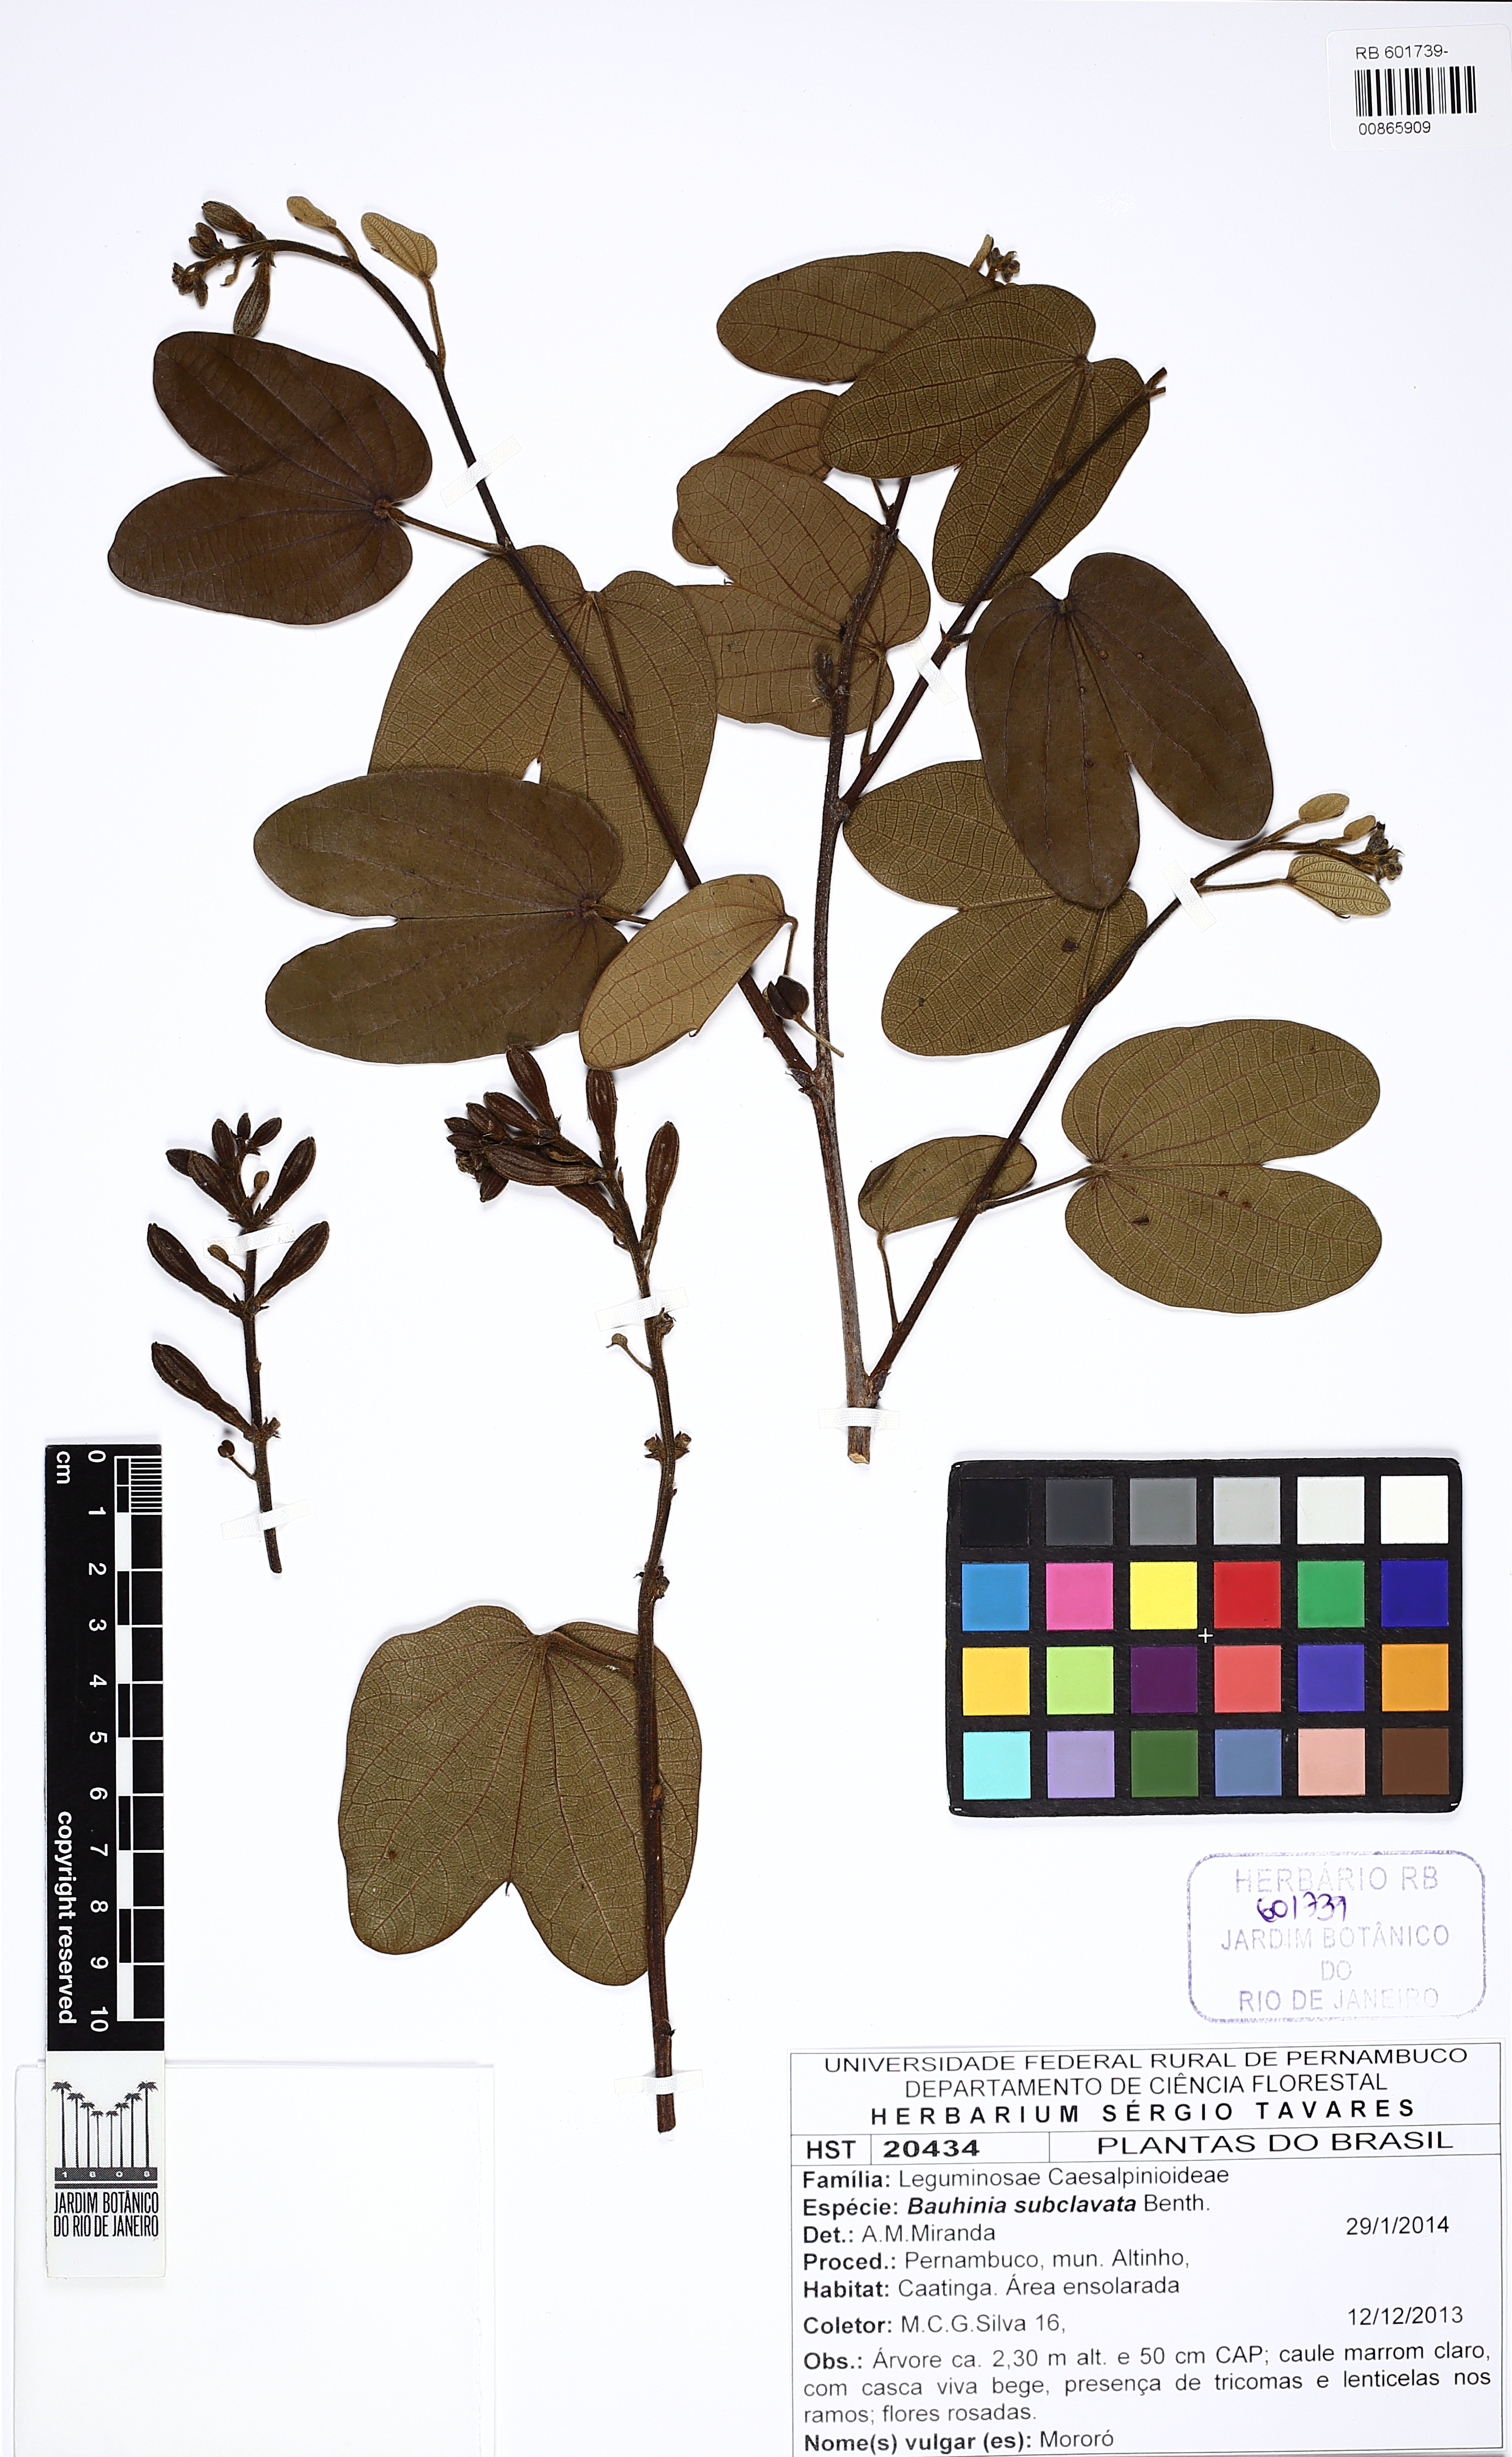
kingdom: Plantae
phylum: Tracheophyta
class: Magnoliopsida
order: Fabales
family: Fabaceae
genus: Bauhinia
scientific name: Bauhinia subclavala
